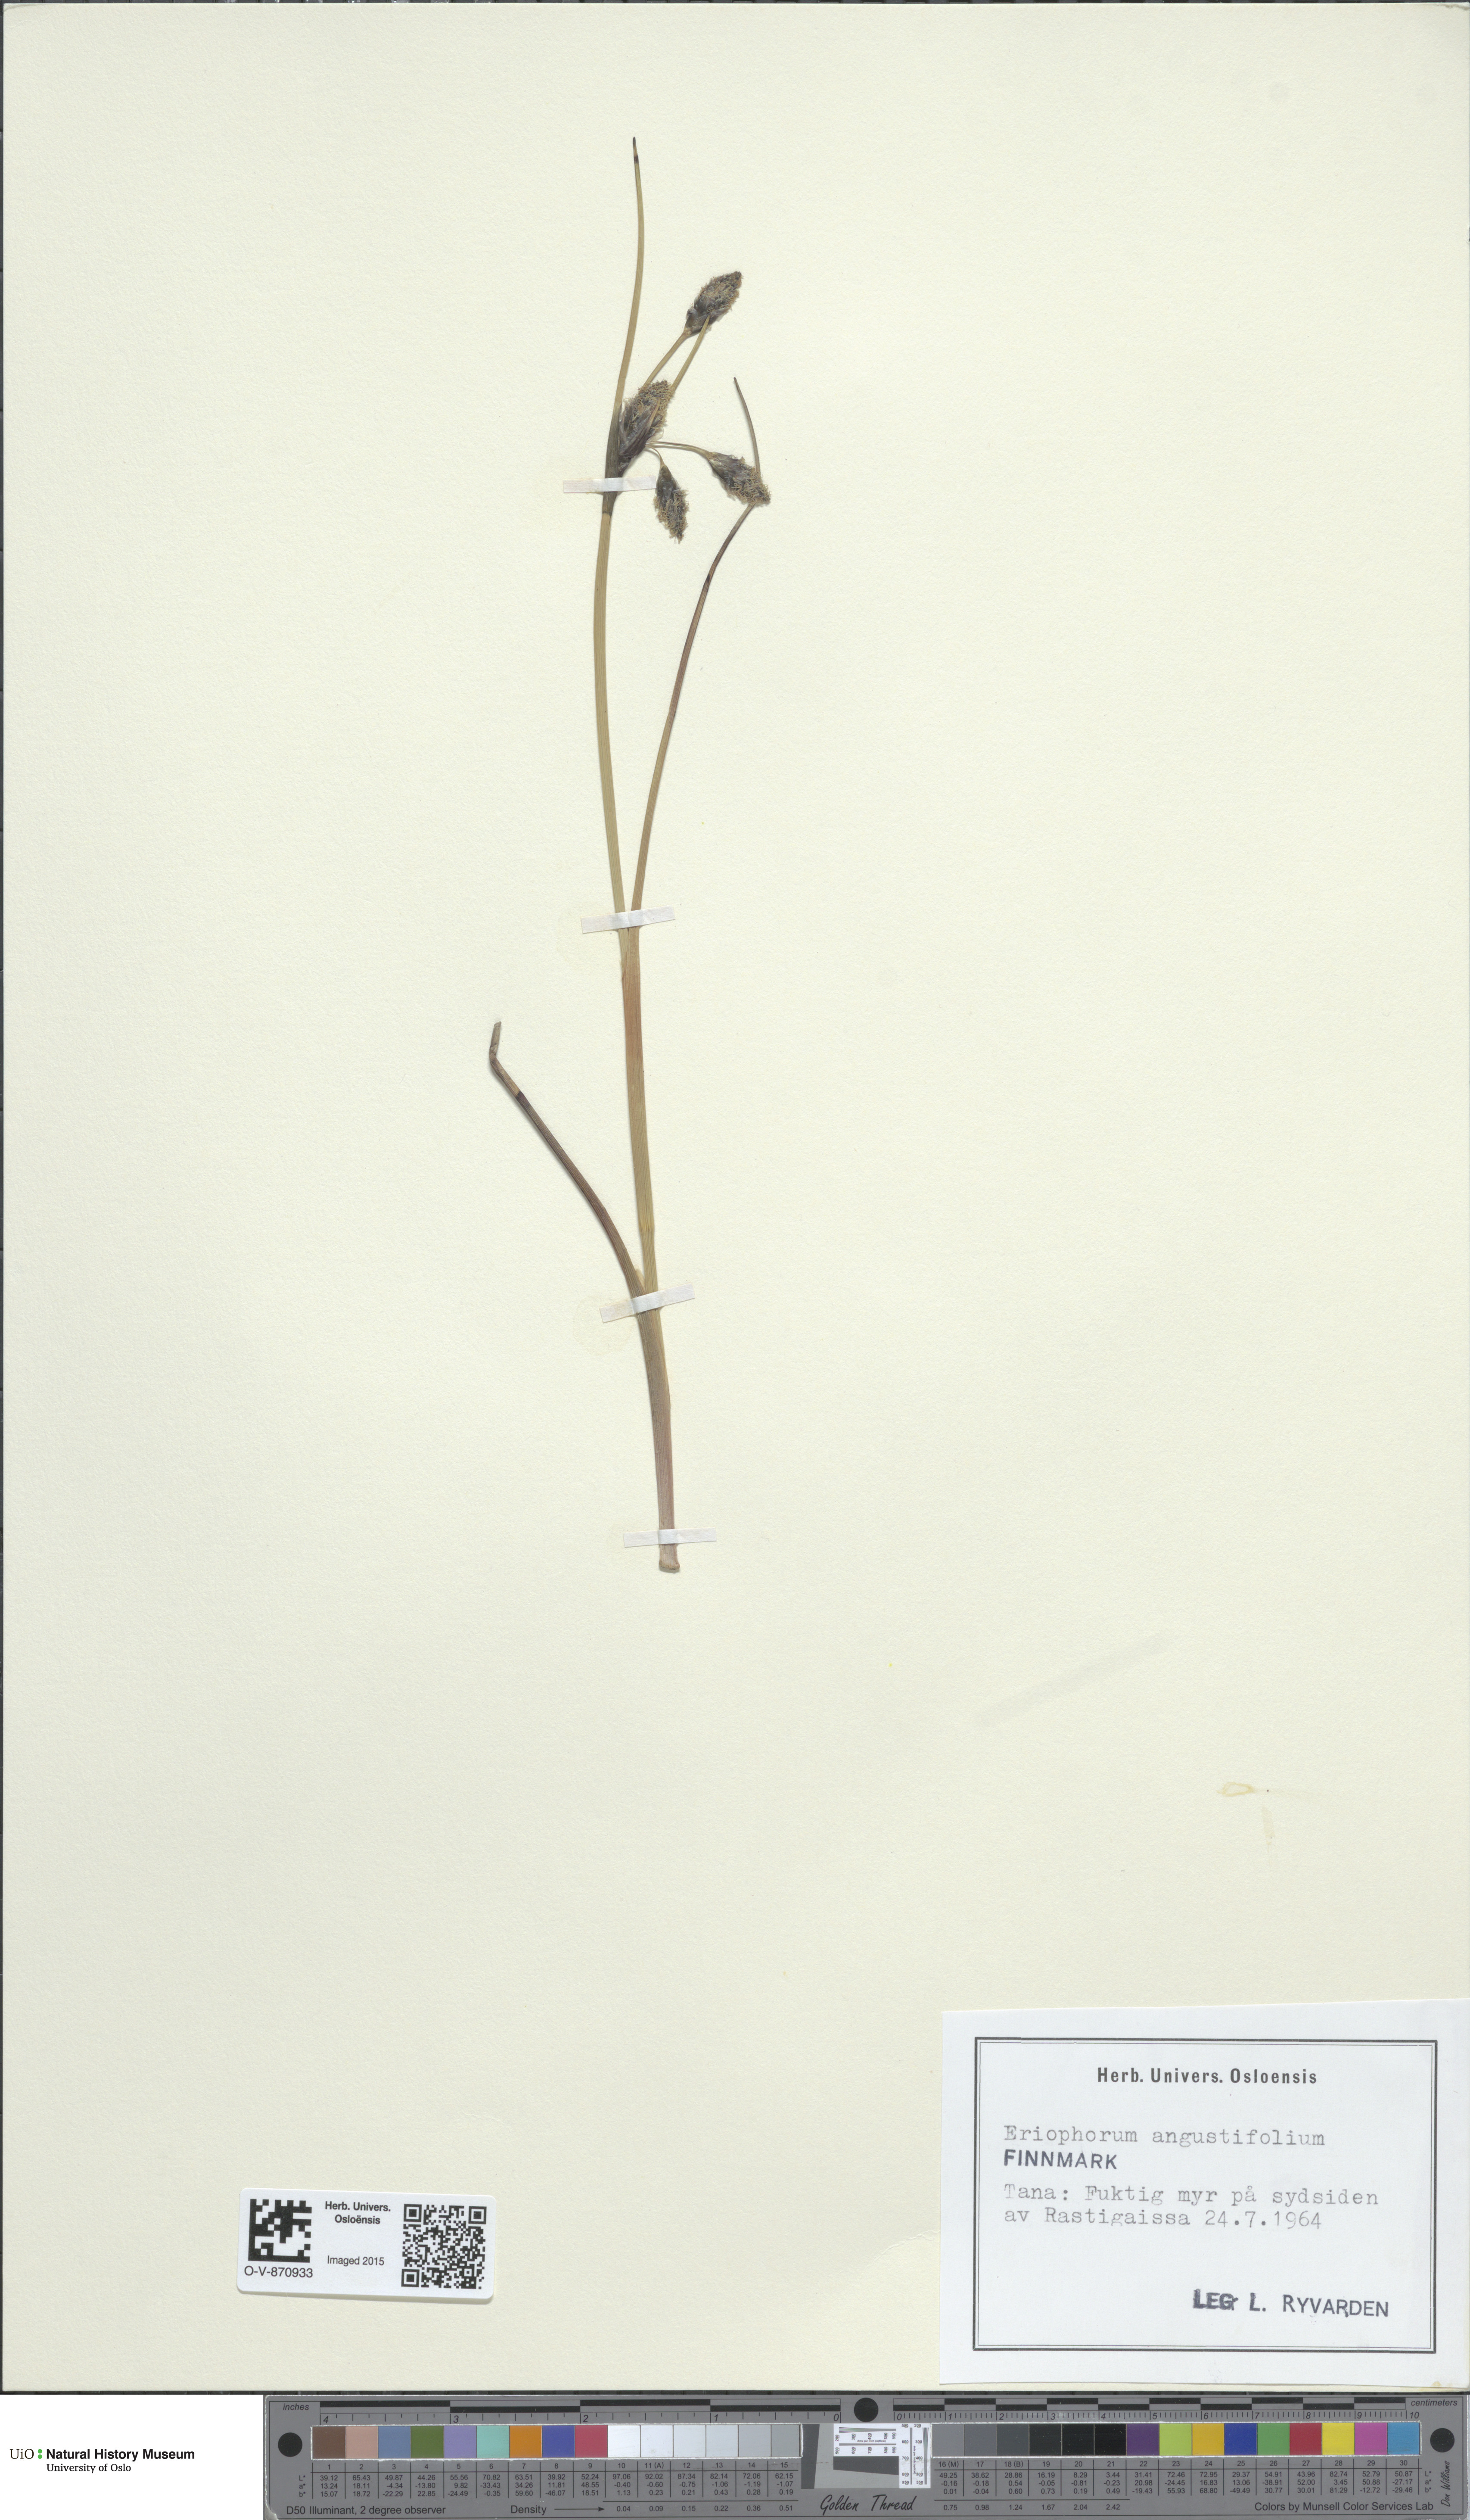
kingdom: Plantae
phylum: Tracheophyta
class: Liliopsida
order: Poales
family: Cyperaceae
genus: Eriophorum
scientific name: Eriophorum angustifolium
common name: Common cottongrass
